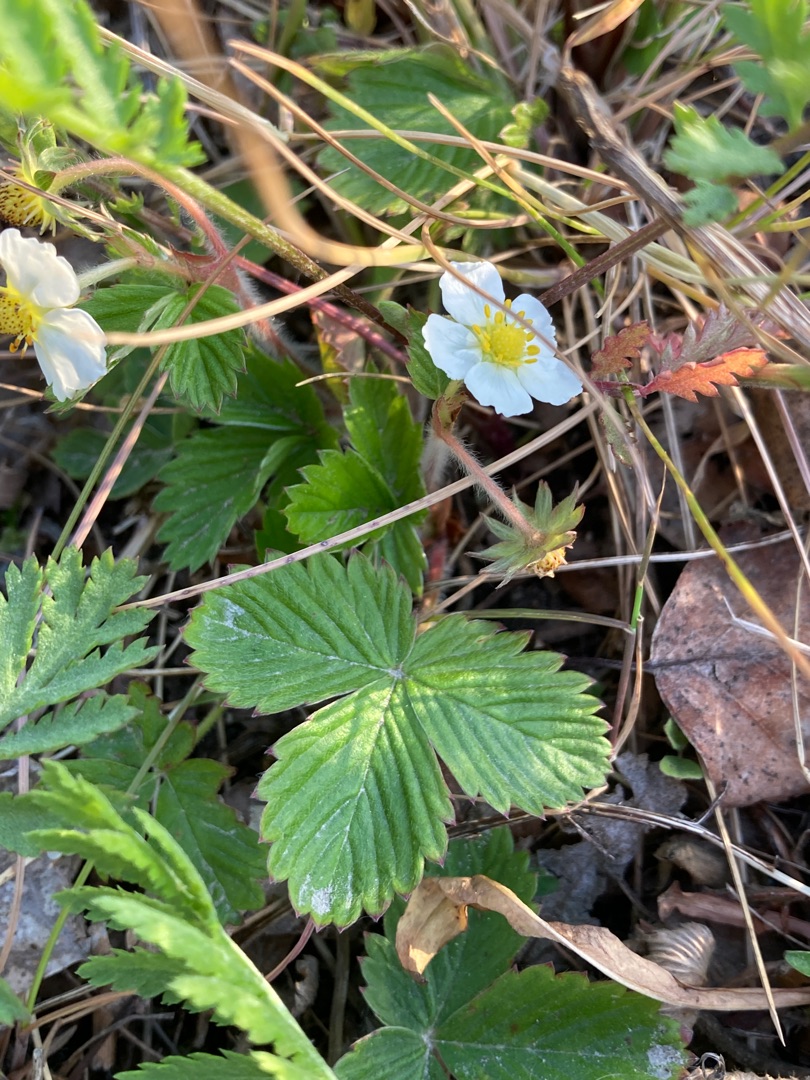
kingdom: Plantae
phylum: Tracheophyta
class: Magnoliopsida
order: Rosales
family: Rosaceae
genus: Fragaria
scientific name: Fragaria vesca
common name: Skov-jordbær
